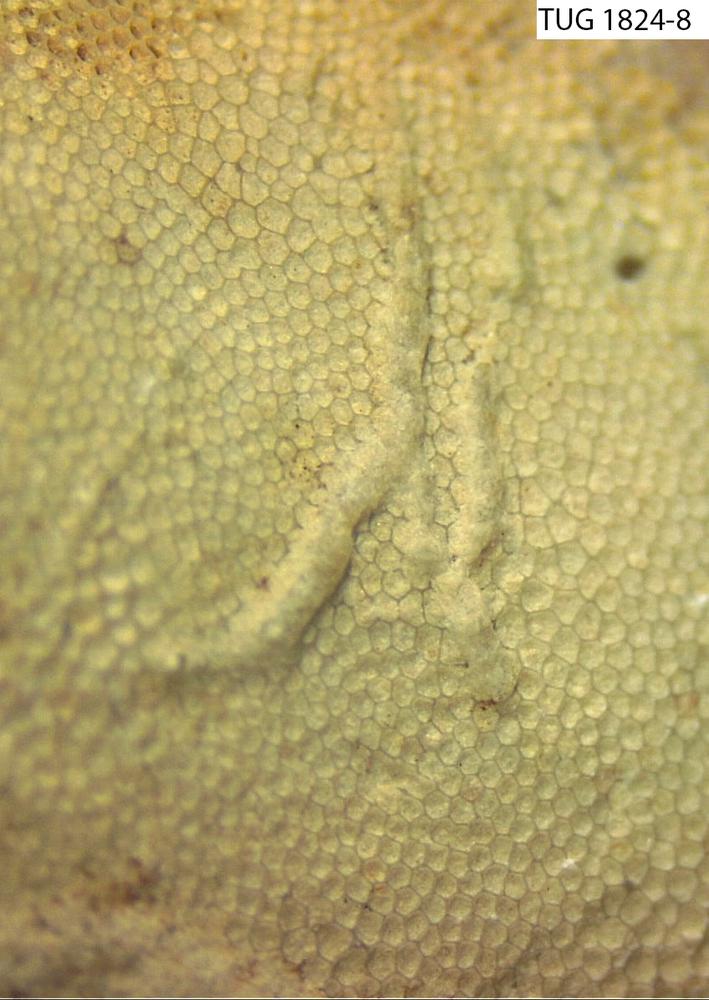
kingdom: Animalia
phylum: Bryozoa
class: Stenolaemata
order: Trepostomatida
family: Diplotrypidae
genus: Diplotrypa
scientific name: Diplotrypa
